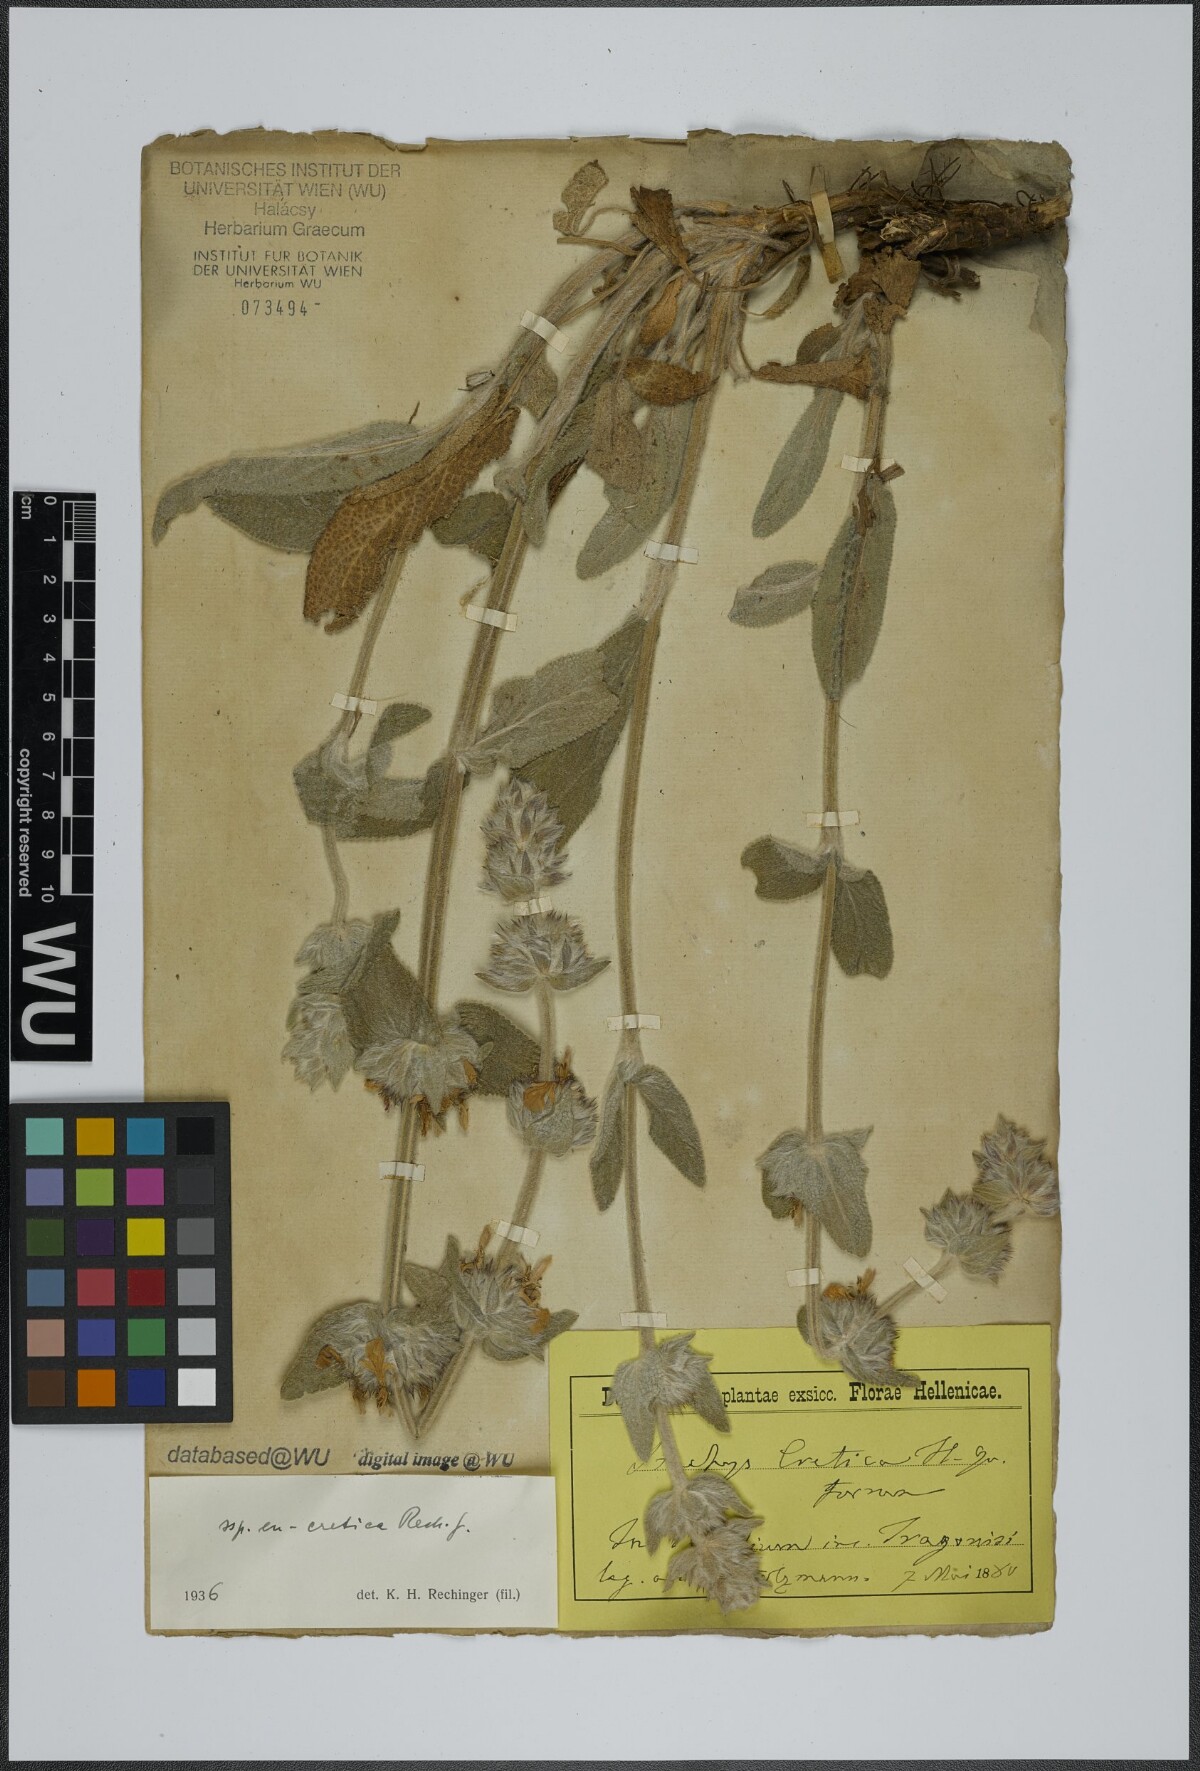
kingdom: Plantae
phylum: Tracheophyta
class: Magnoliopsida
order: Lamiales
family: Lamiaceae
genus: Stachys
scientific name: Stachys cretica
